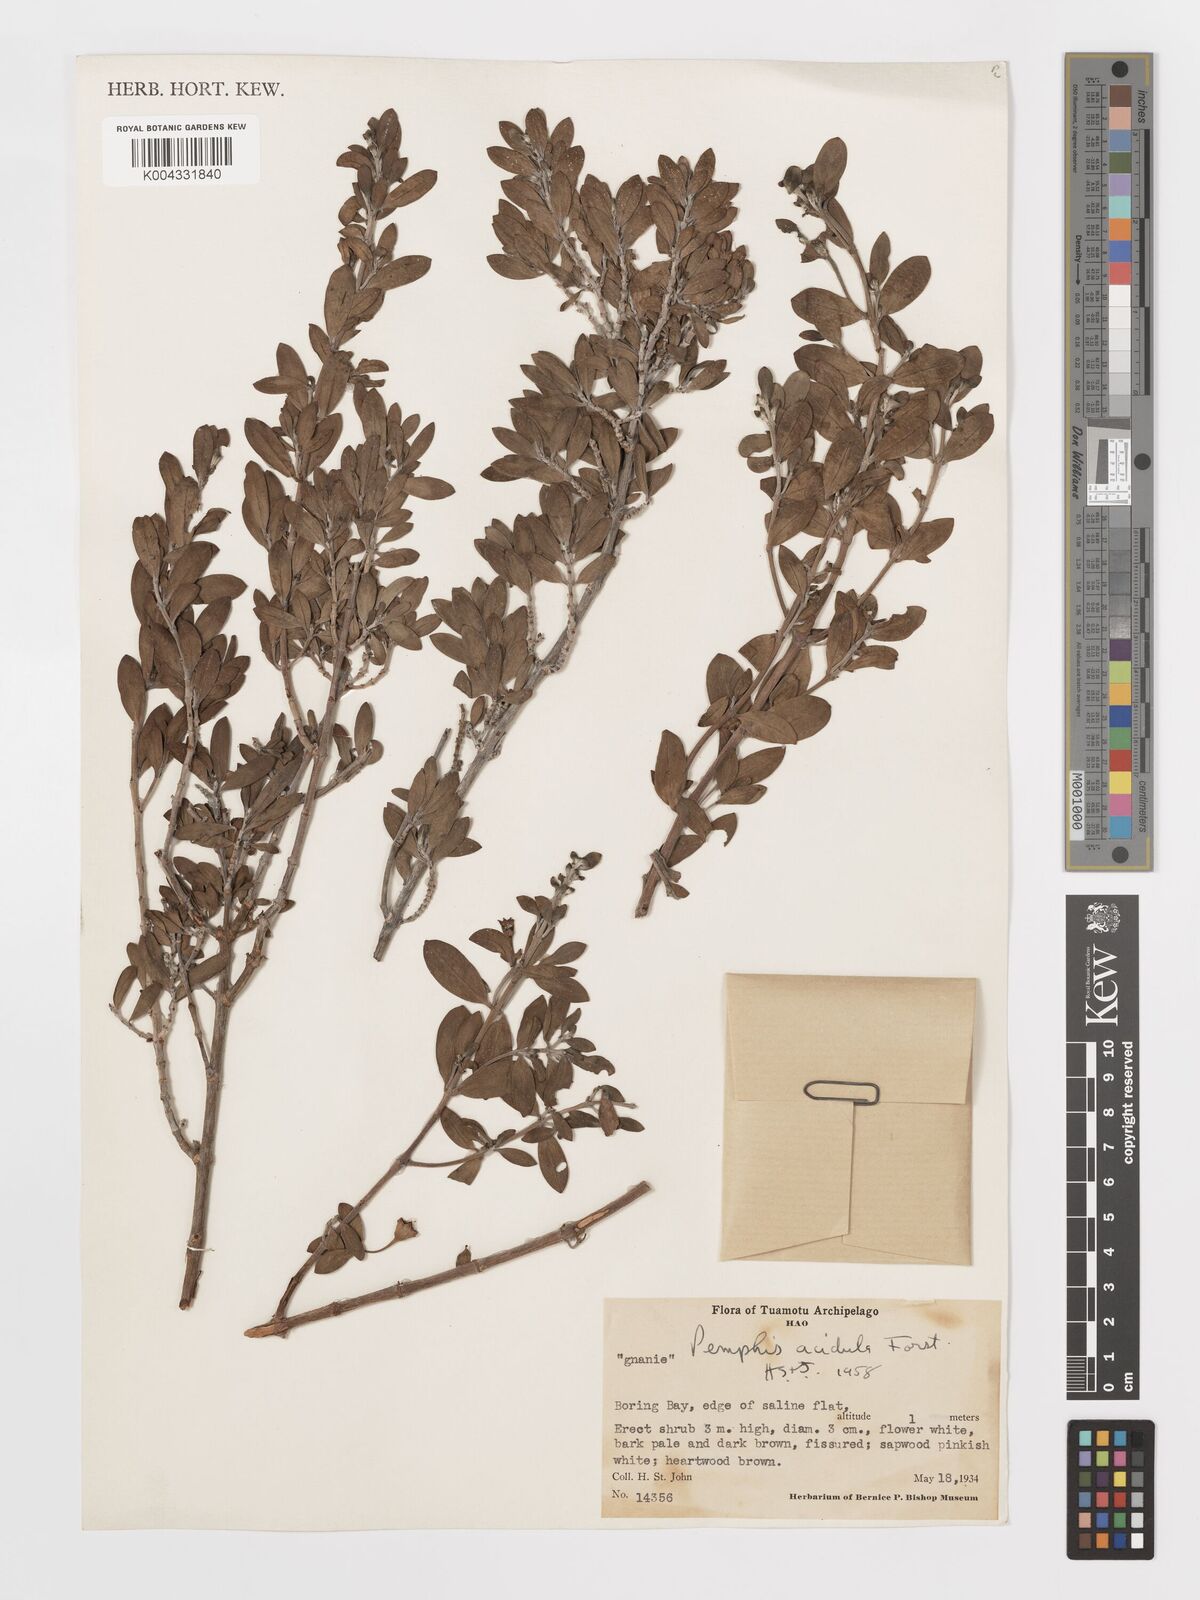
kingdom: Plantae
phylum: Tracheophyta
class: Magnoliopsida
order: Myrtales
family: Lythraceae
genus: Pemphis
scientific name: Pemphis acidula
